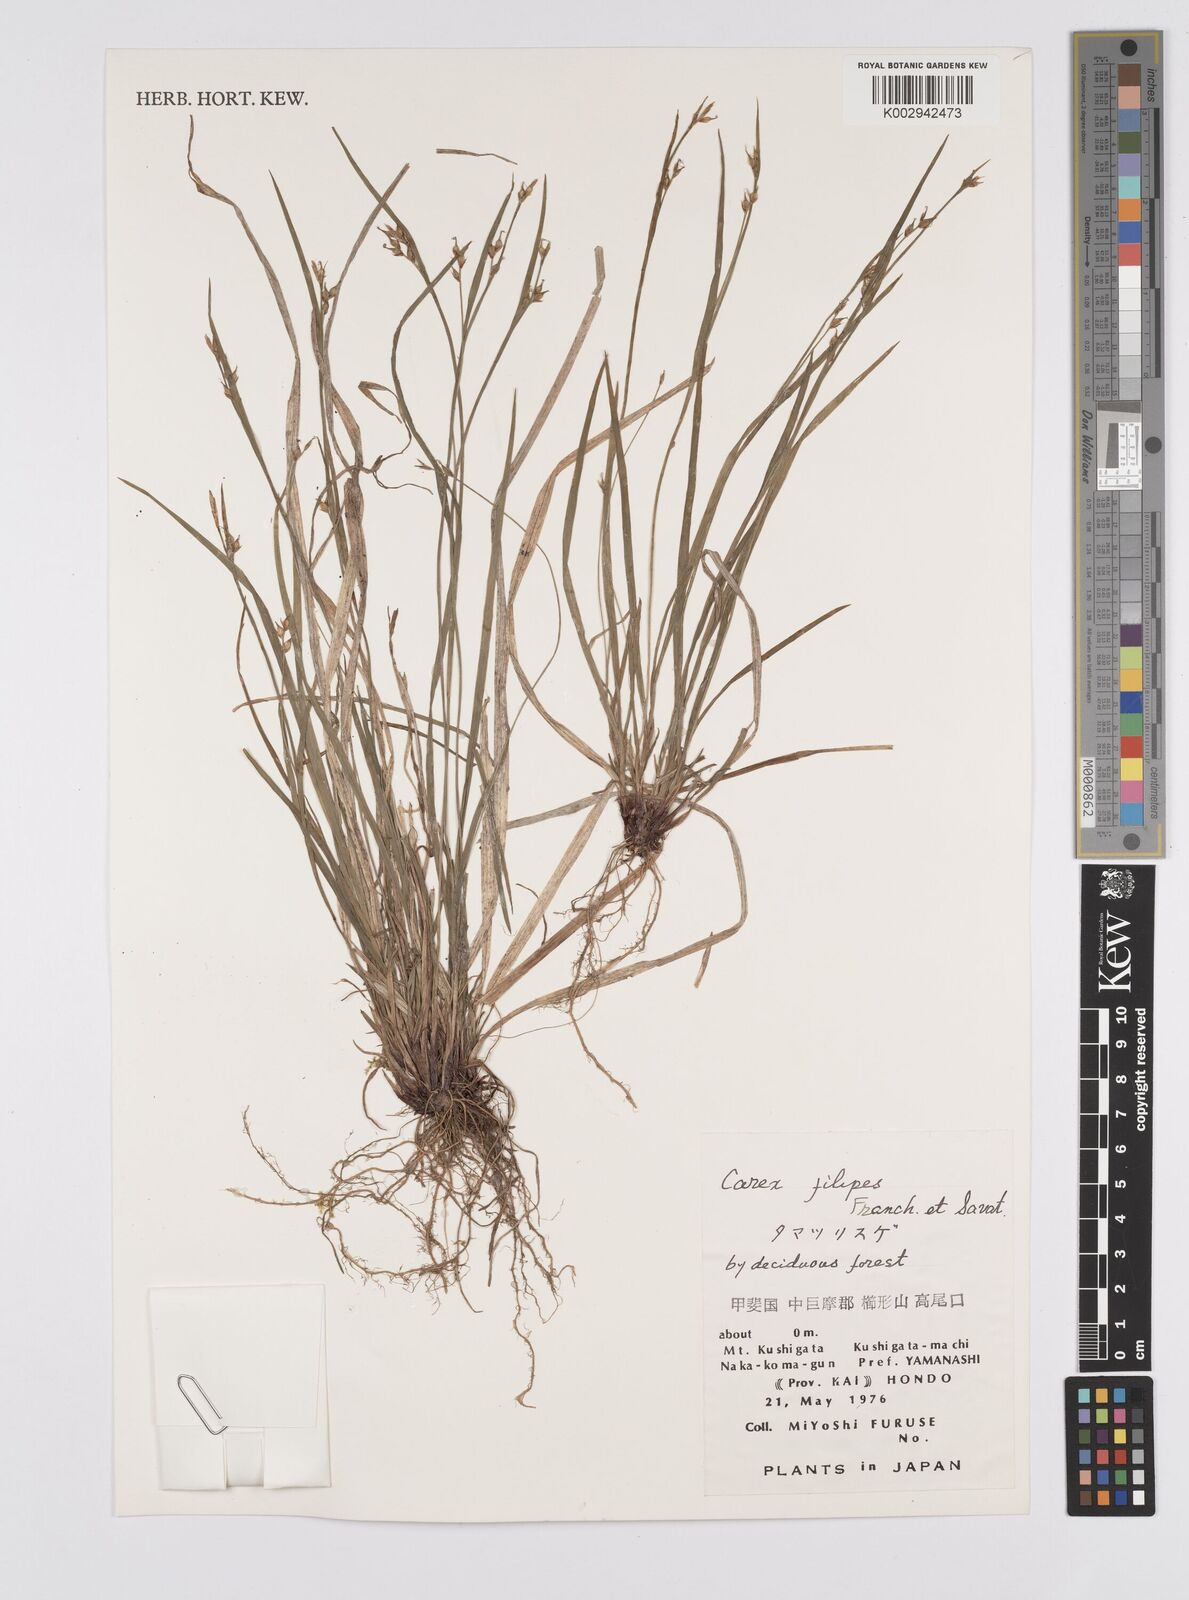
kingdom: Plantae
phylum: Tracheophyta
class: Liliopsida
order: Poales
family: Cyperaceae
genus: Carex
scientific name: Carex filipes
